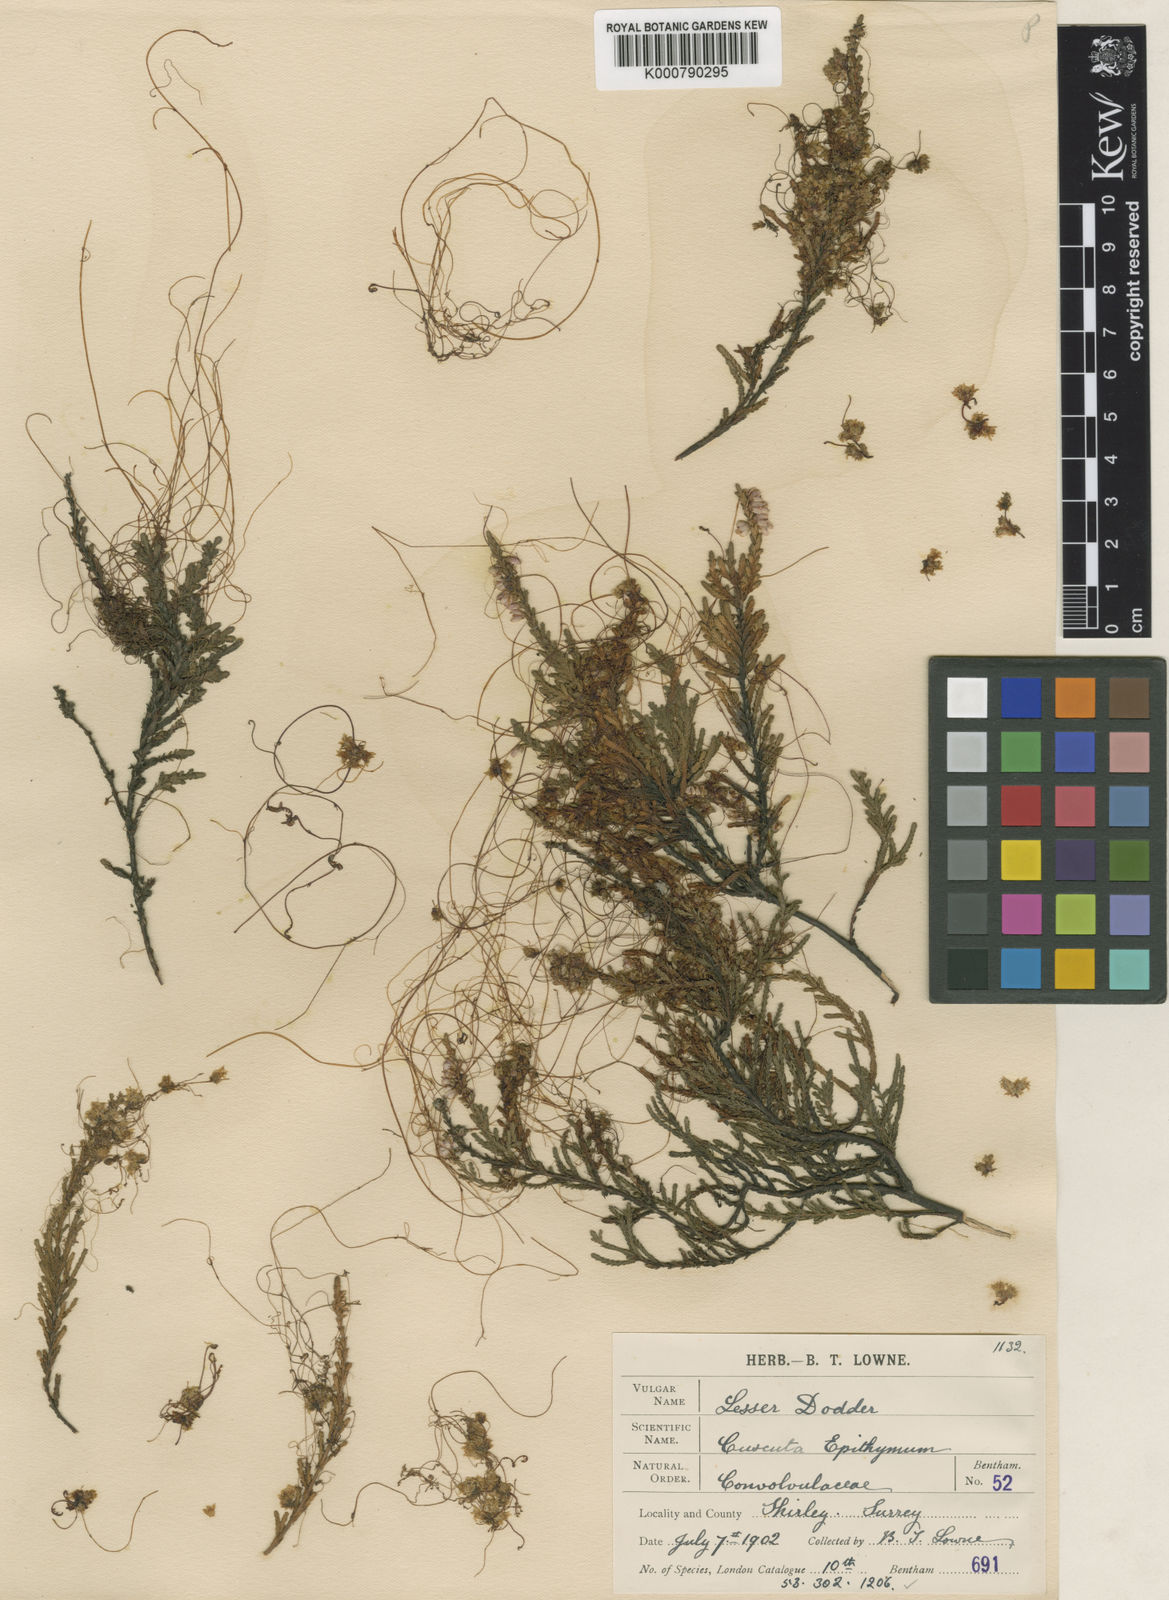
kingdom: Plantae
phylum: Tracheophyta
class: Magnoliopsida
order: Solanales
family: Convolvulaceae
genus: Cuscuta
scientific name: Cuscuta epithymum
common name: Clover dodder
